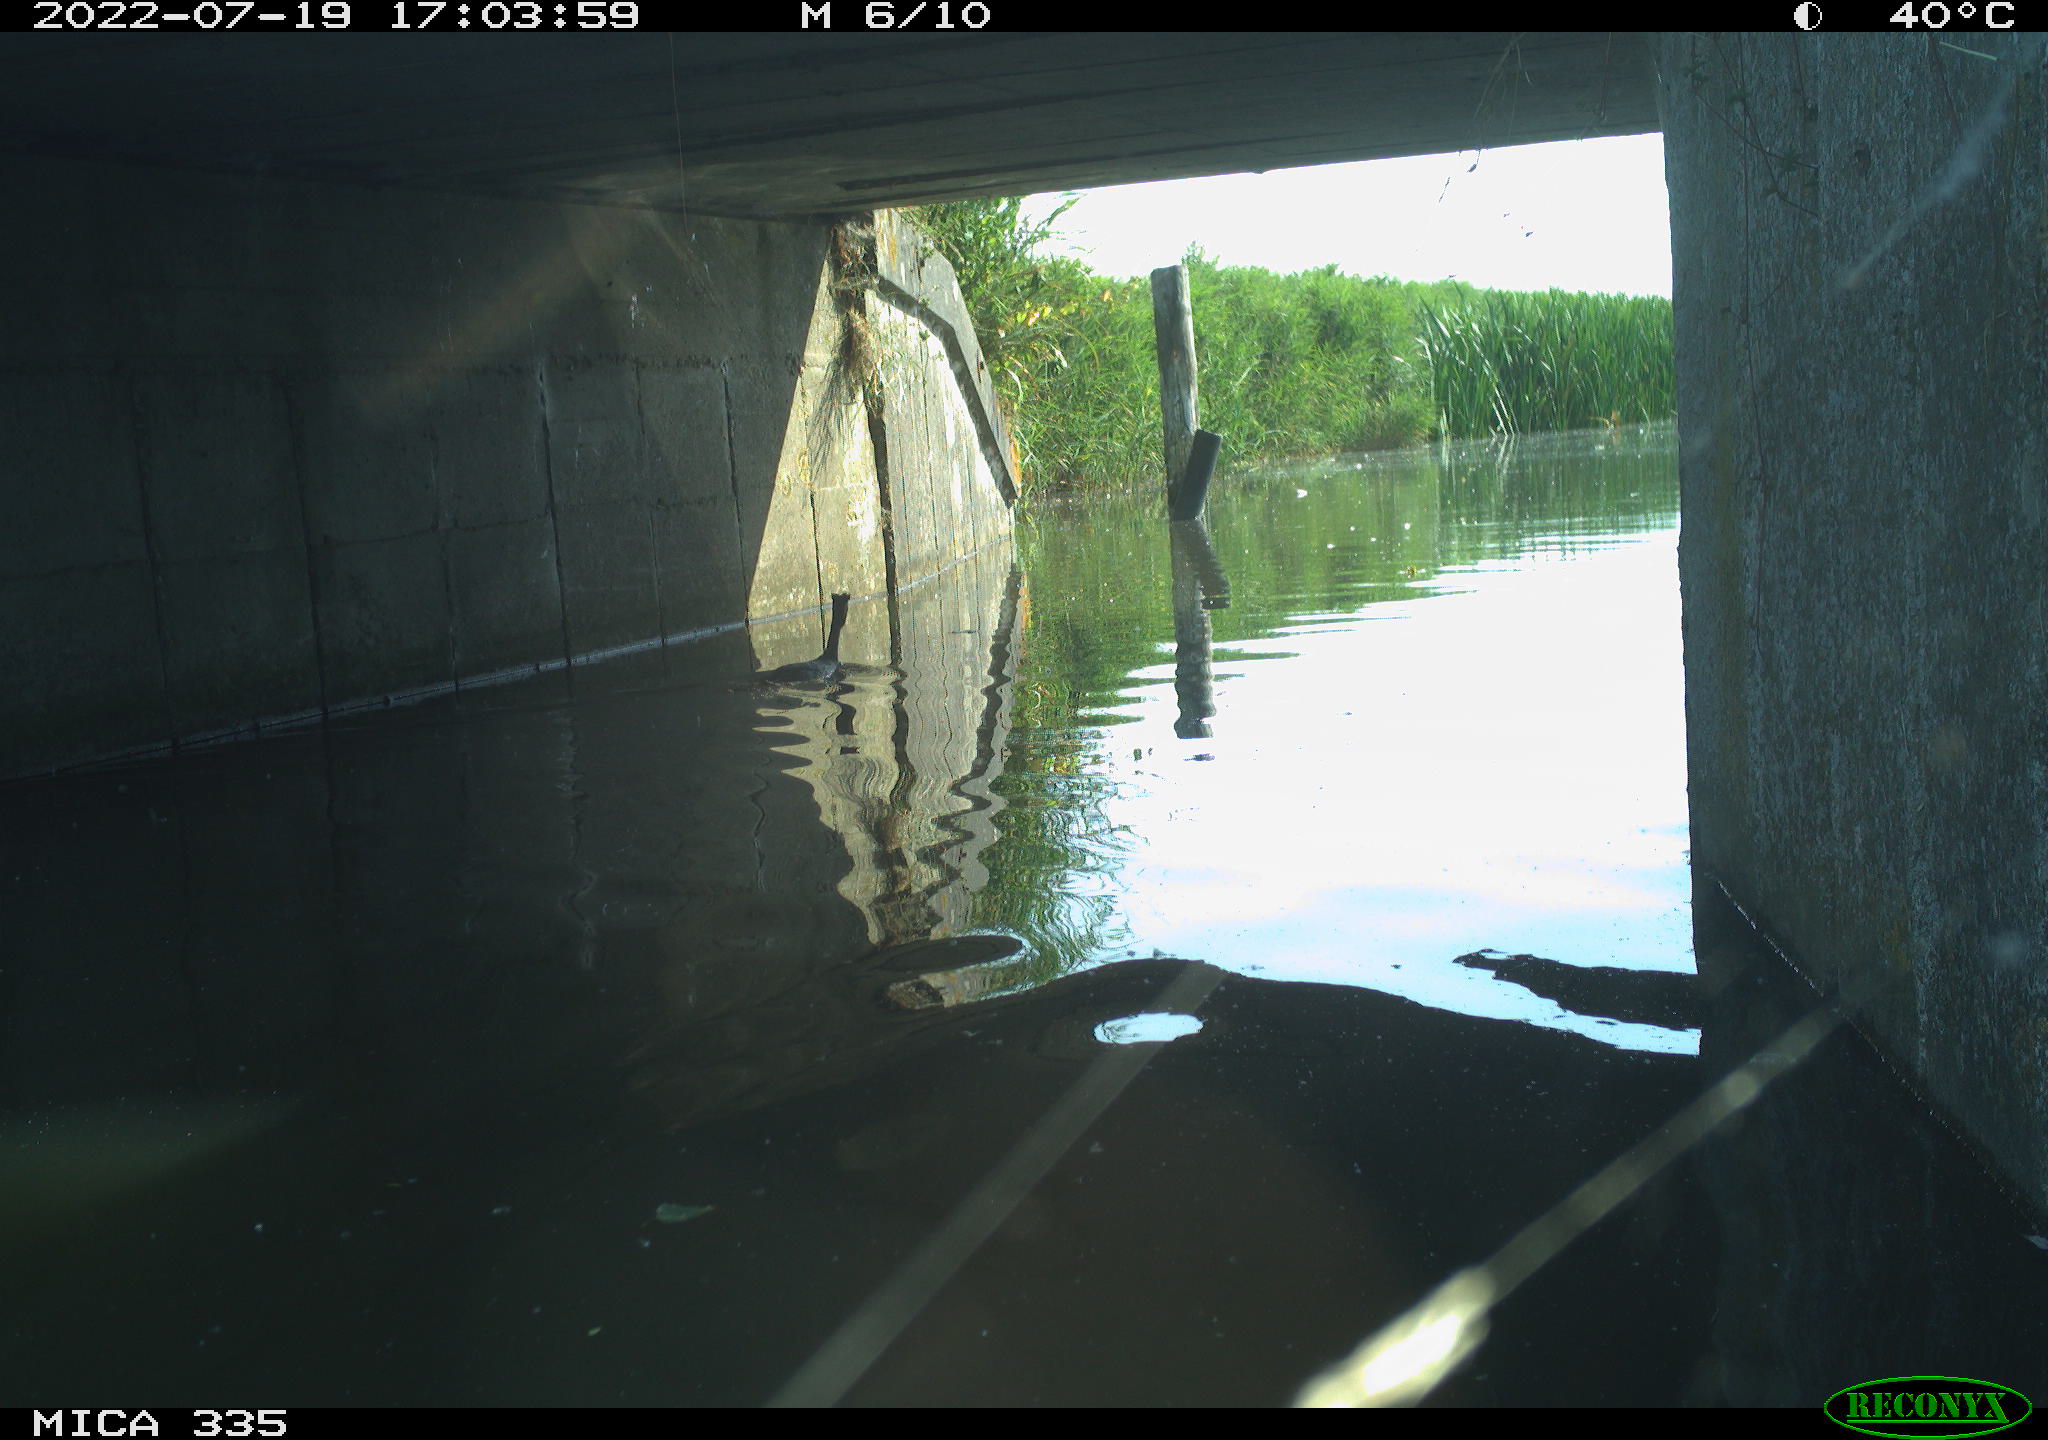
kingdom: Animalia
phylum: Chordata
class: Aves
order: Podicipediformes
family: Podicipedidae
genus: Podiceps
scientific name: Podiceps cristatus
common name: Great crested grebe
